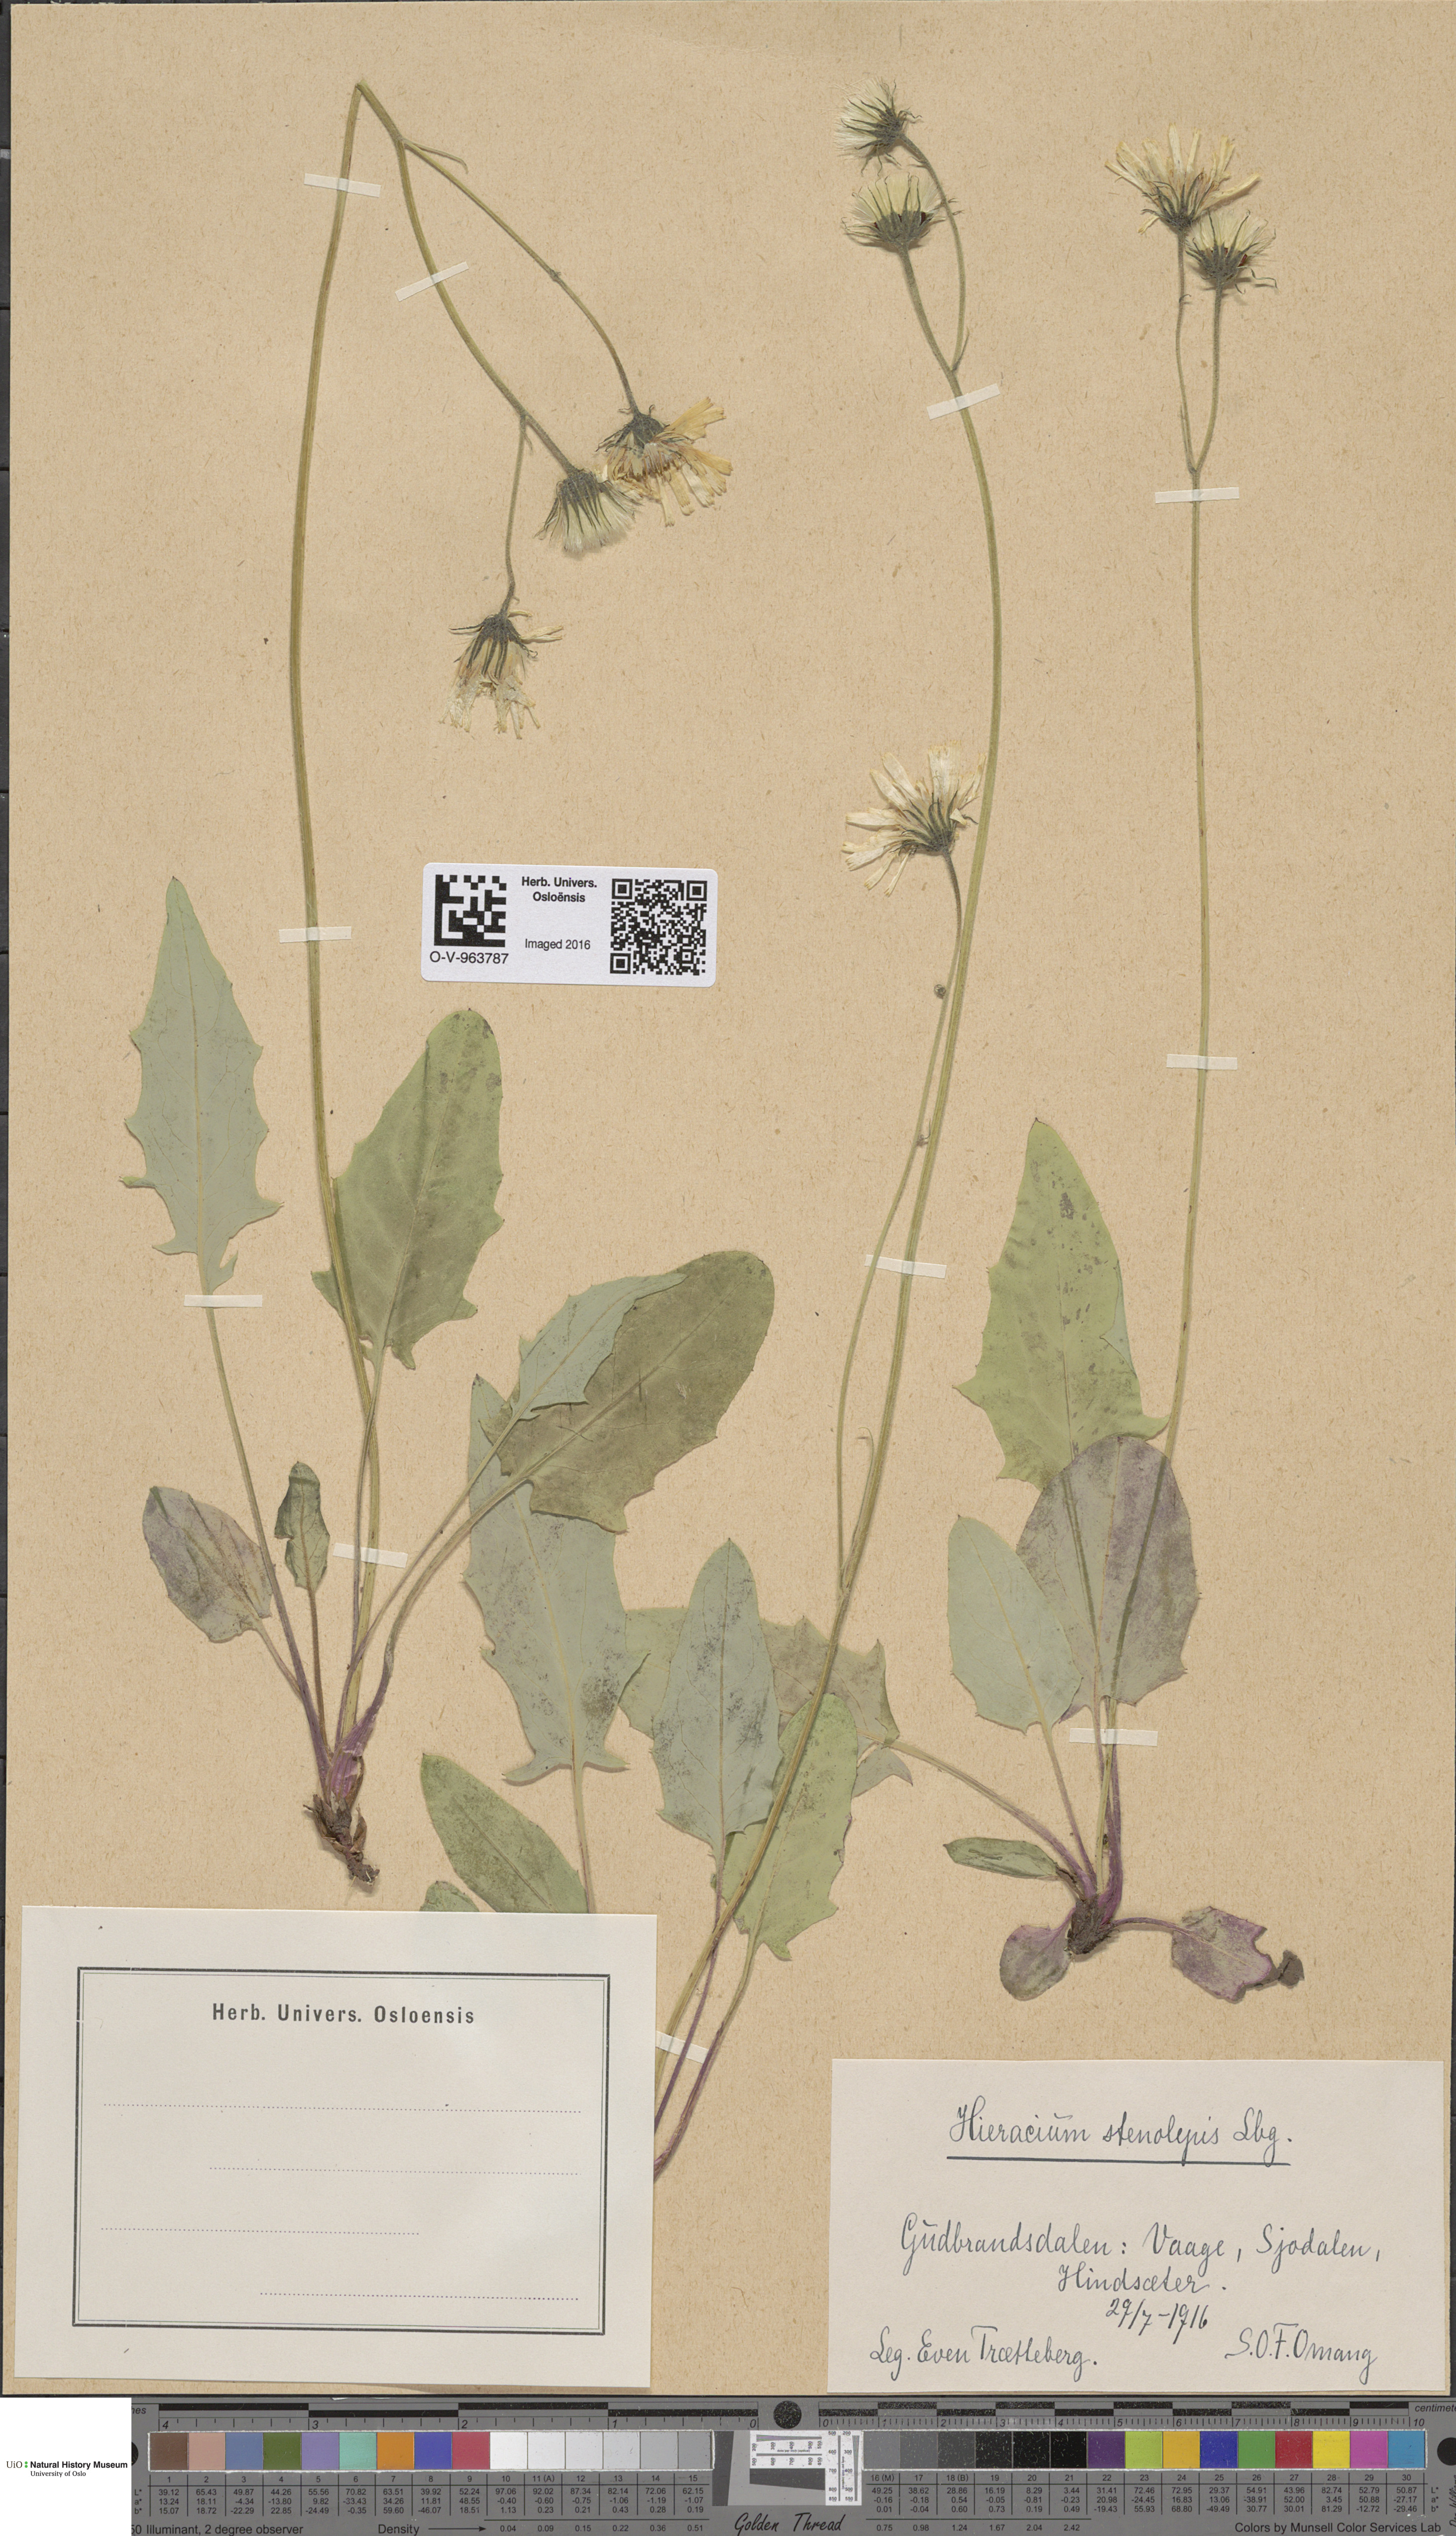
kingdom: Plantae
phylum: Tracheophyta
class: Magnoliopsida
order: Asterales
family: Asteraceae
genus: Hieracium
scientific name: Hieracium bifidum
